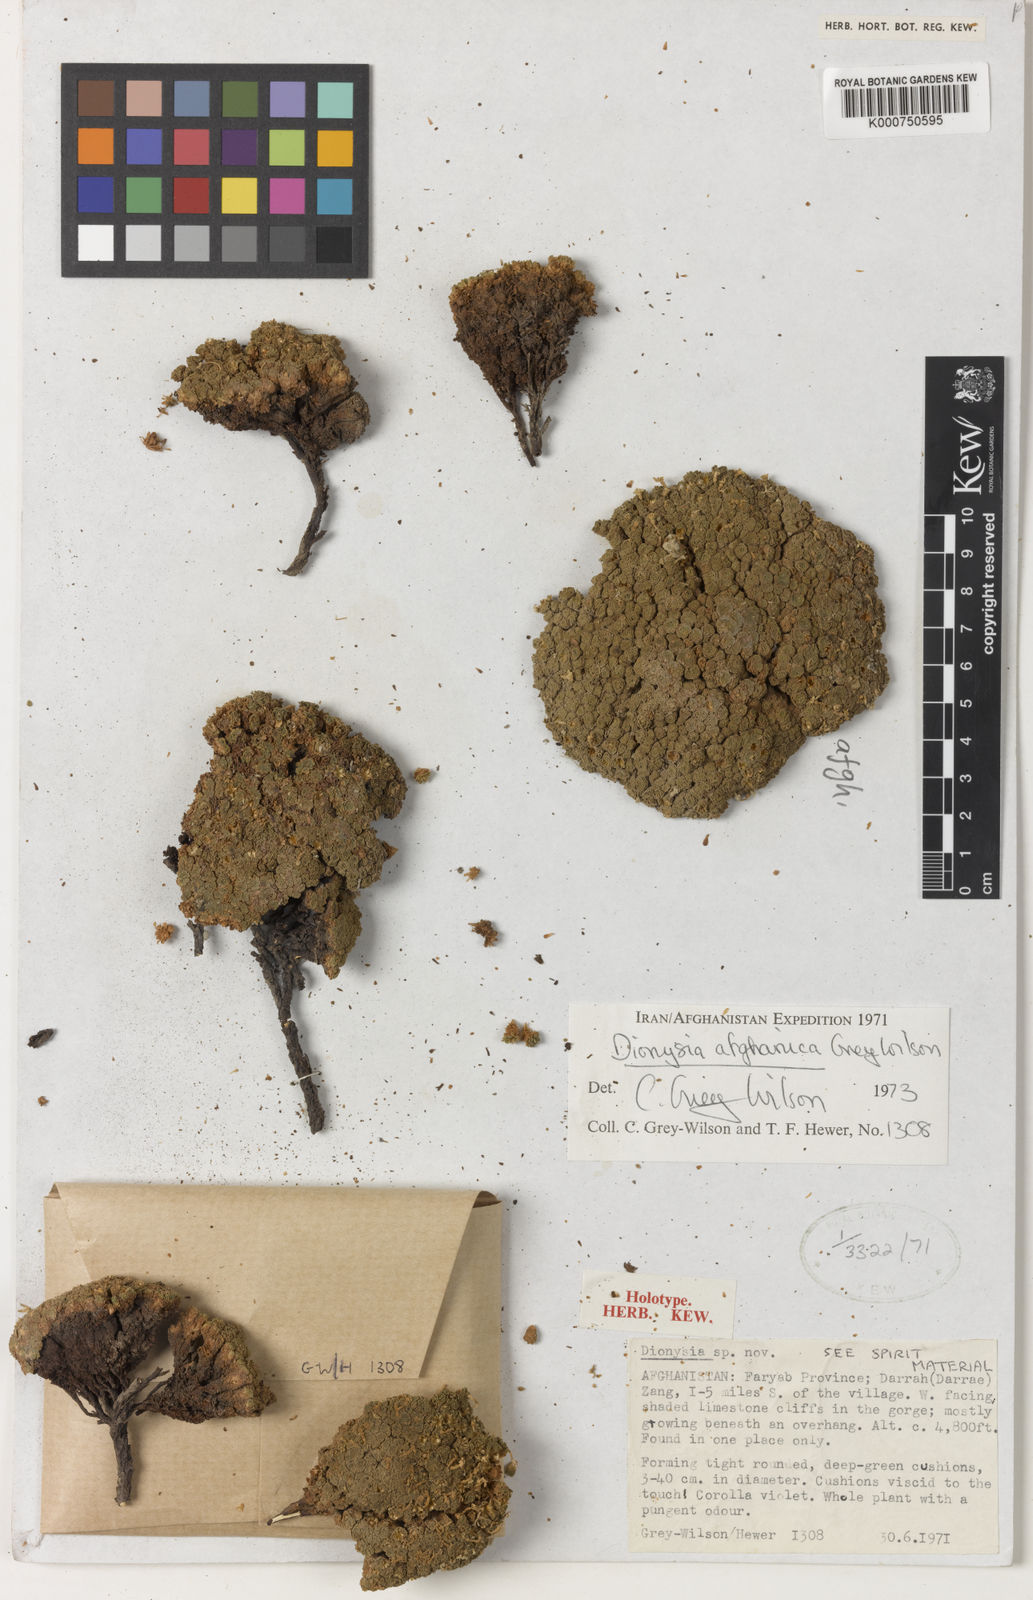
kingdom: Plantae
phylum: Tracheophyta
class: Magnoliopsida
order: Ericales
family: Primulaceae
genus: Dionysia
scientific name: Dionysia afghanica
